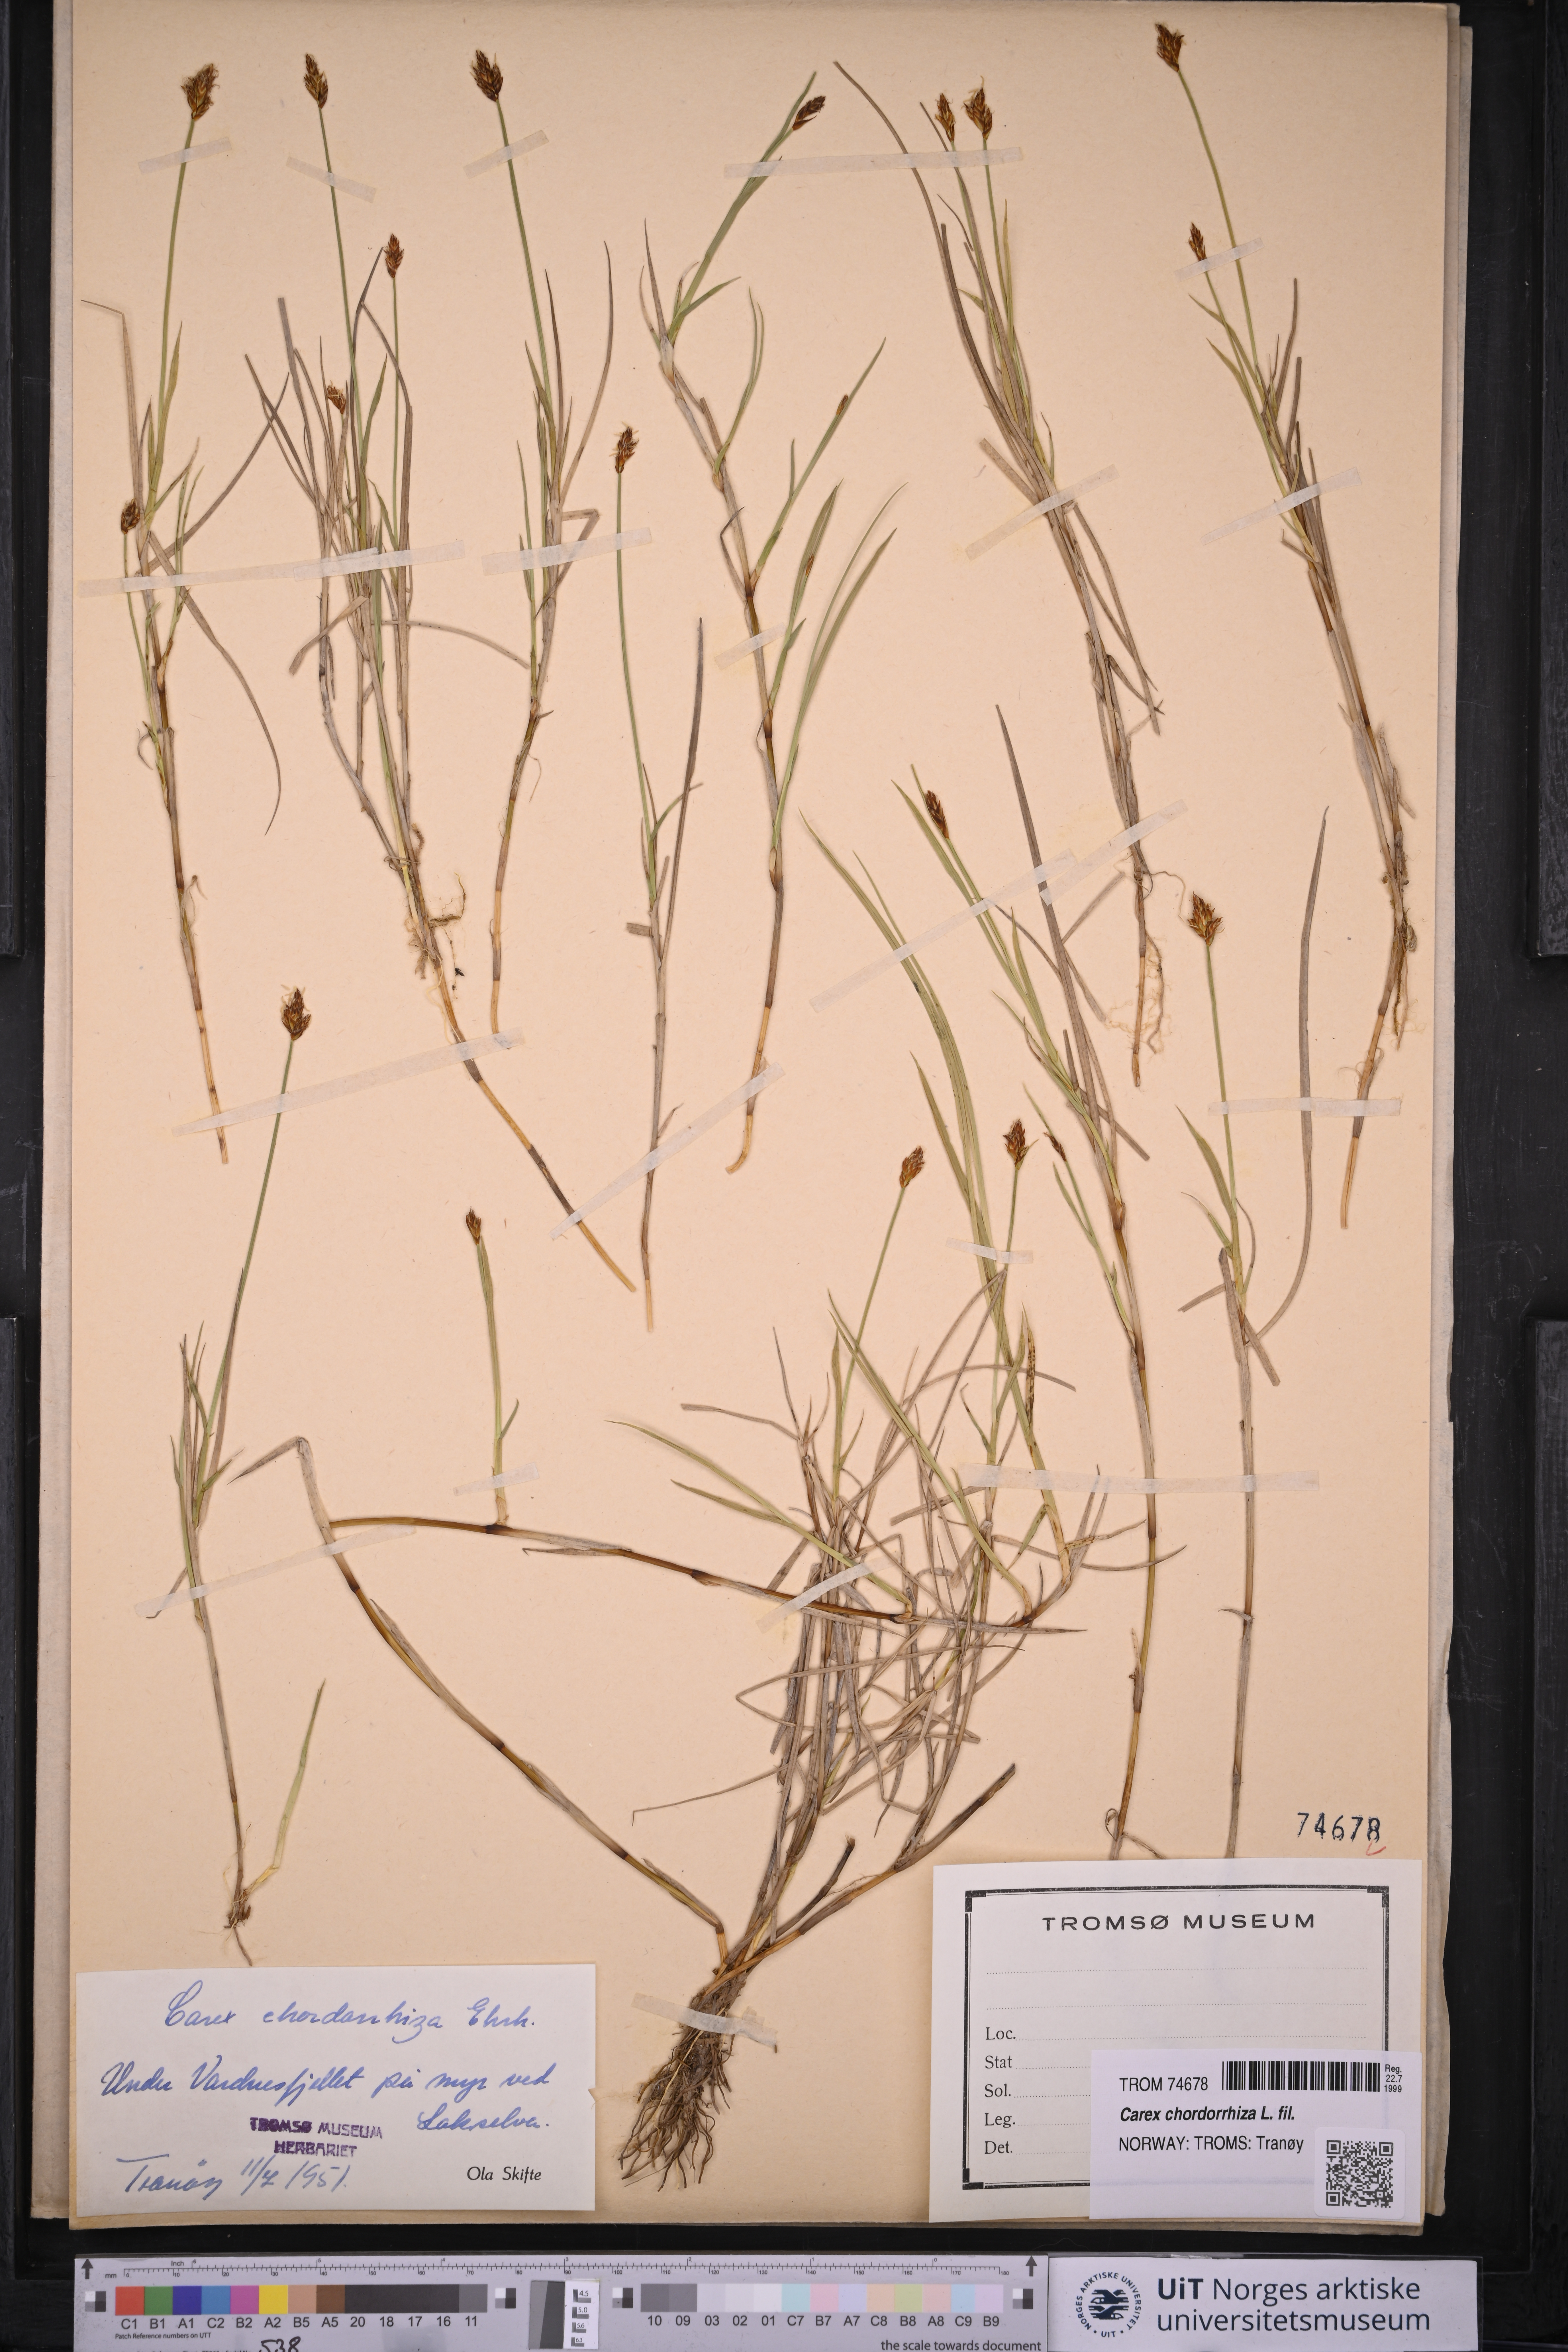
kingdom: Plantae
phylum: Tracheophyta
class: Liliopsida
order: Poales
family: Cyperaceae
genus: Carex
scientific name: Carex chordorrhiza
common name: String sedge
